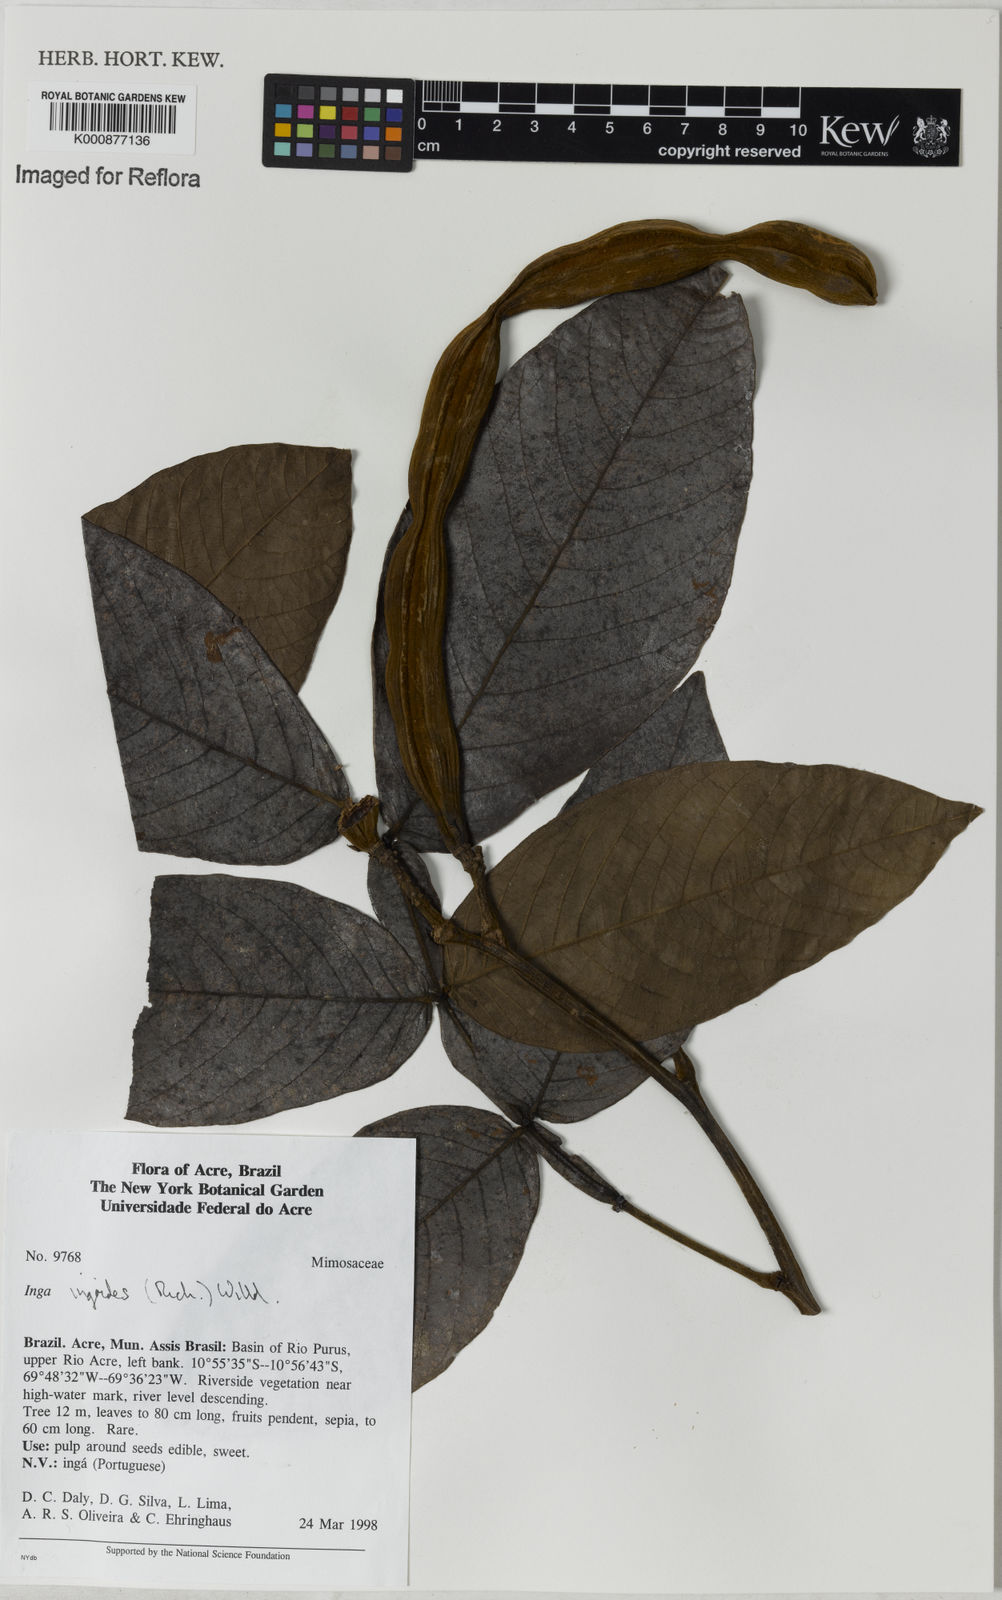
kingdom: Plantae
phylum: Tracheophyta
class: Magnoliopsida
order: Fabales
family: Fabaceae
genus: Inga
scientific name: Inga ingoides
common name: Spanish ash
